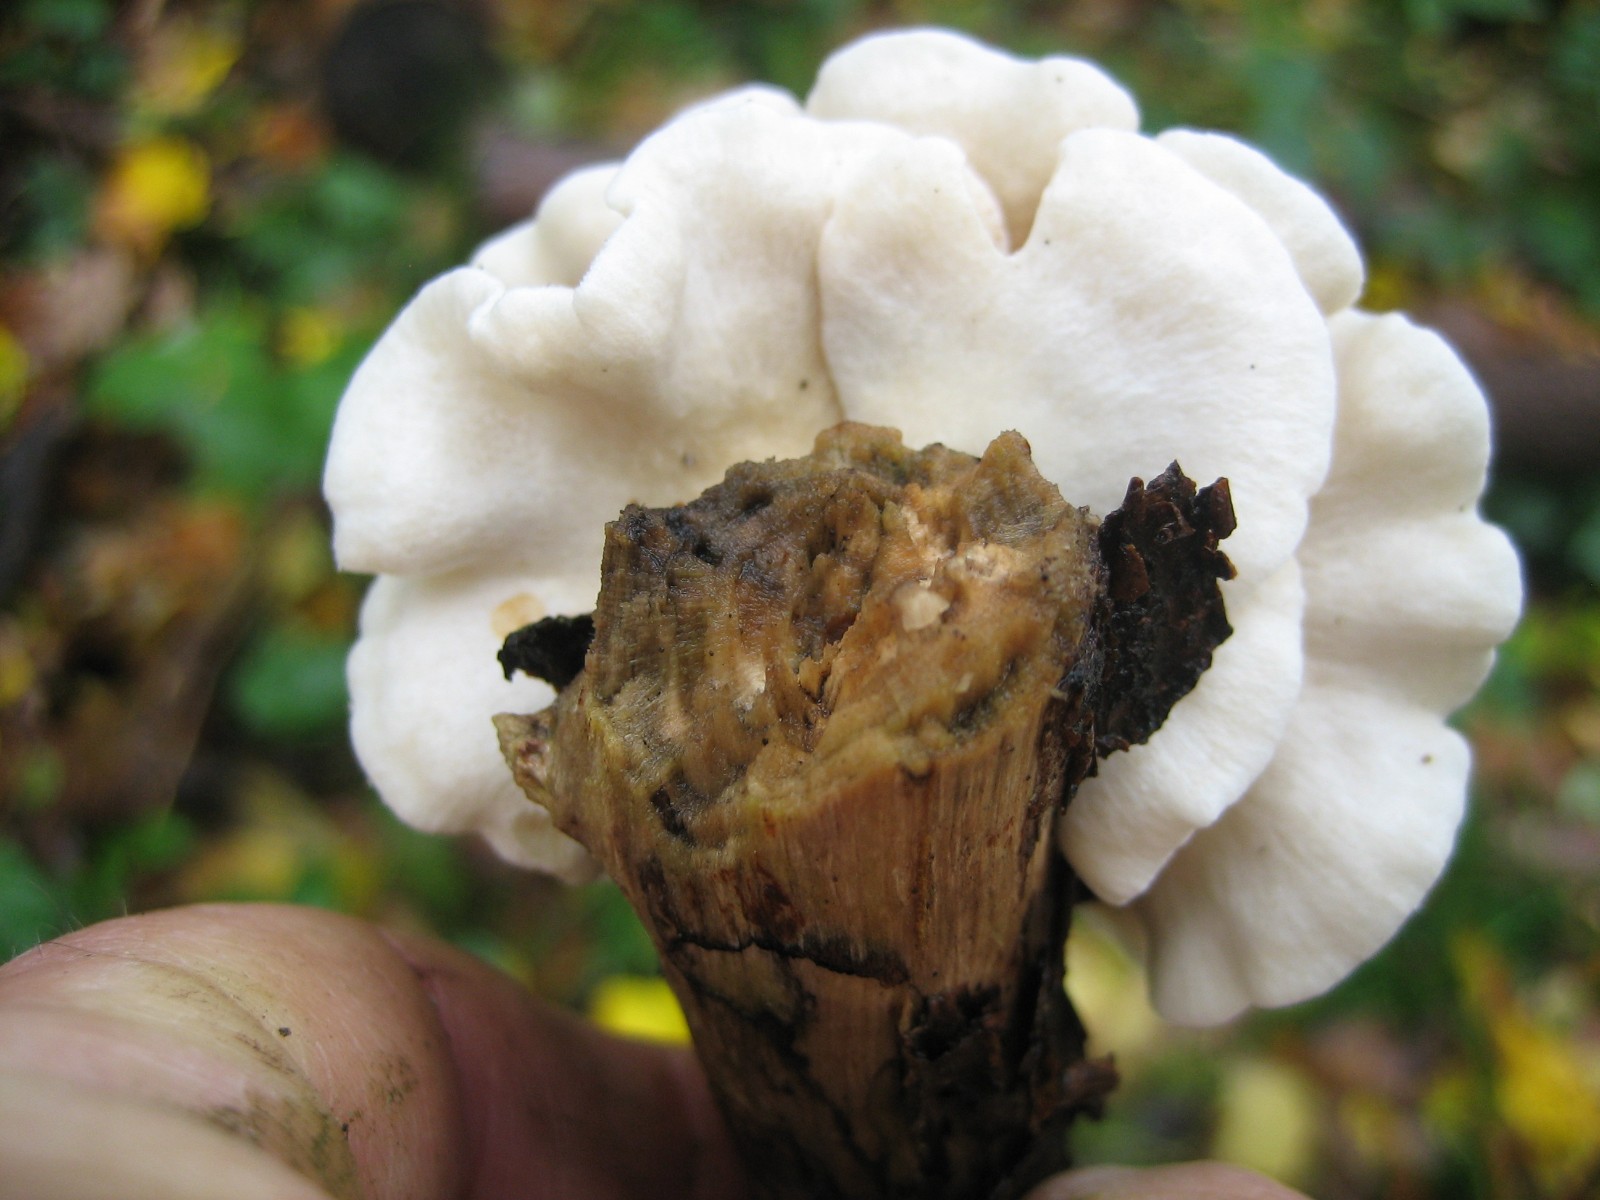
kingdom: Fungi
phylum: Basidiomycota
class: Agaricomycetes
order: Agaricales
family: Crepidotaceae
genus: Crepidotus
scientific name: Crepidotus
